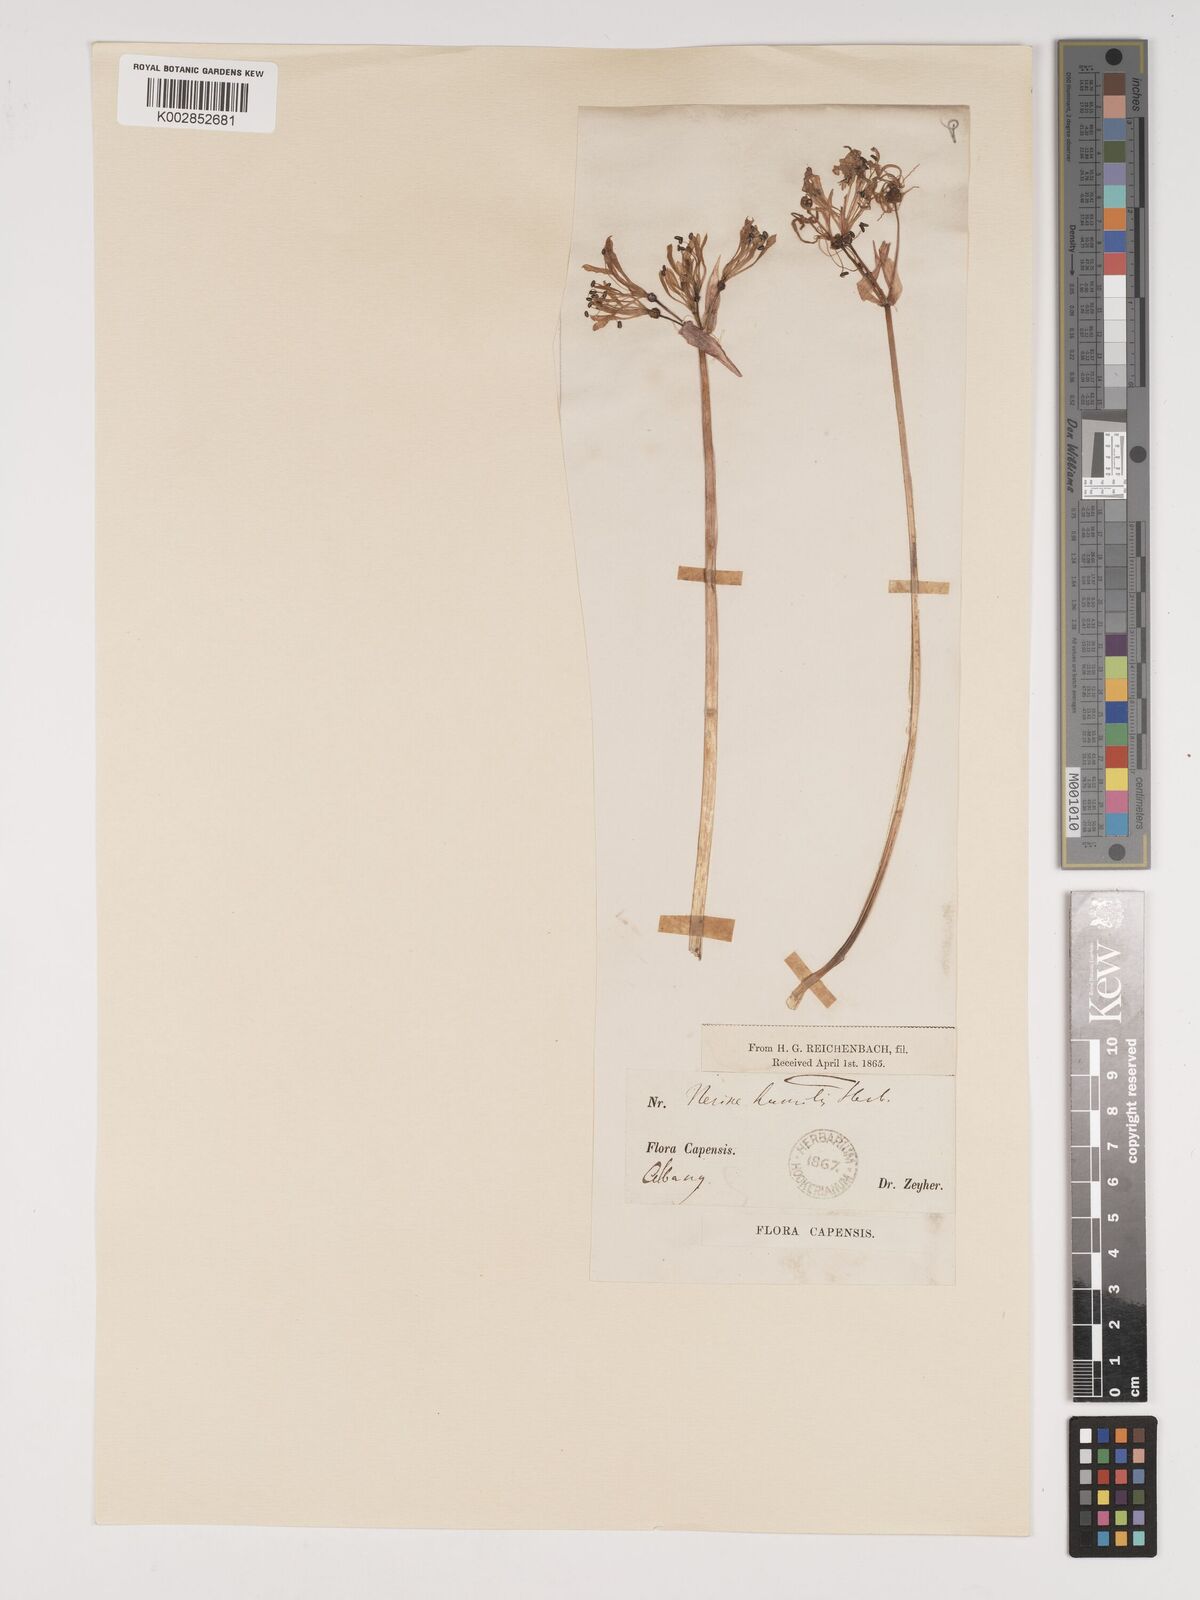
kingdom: Plantae
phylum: Tracheophyta
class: Liliopsida
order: Asparagales
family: Amaryllidaceae
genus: Nerine
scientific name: Nerine undulata
